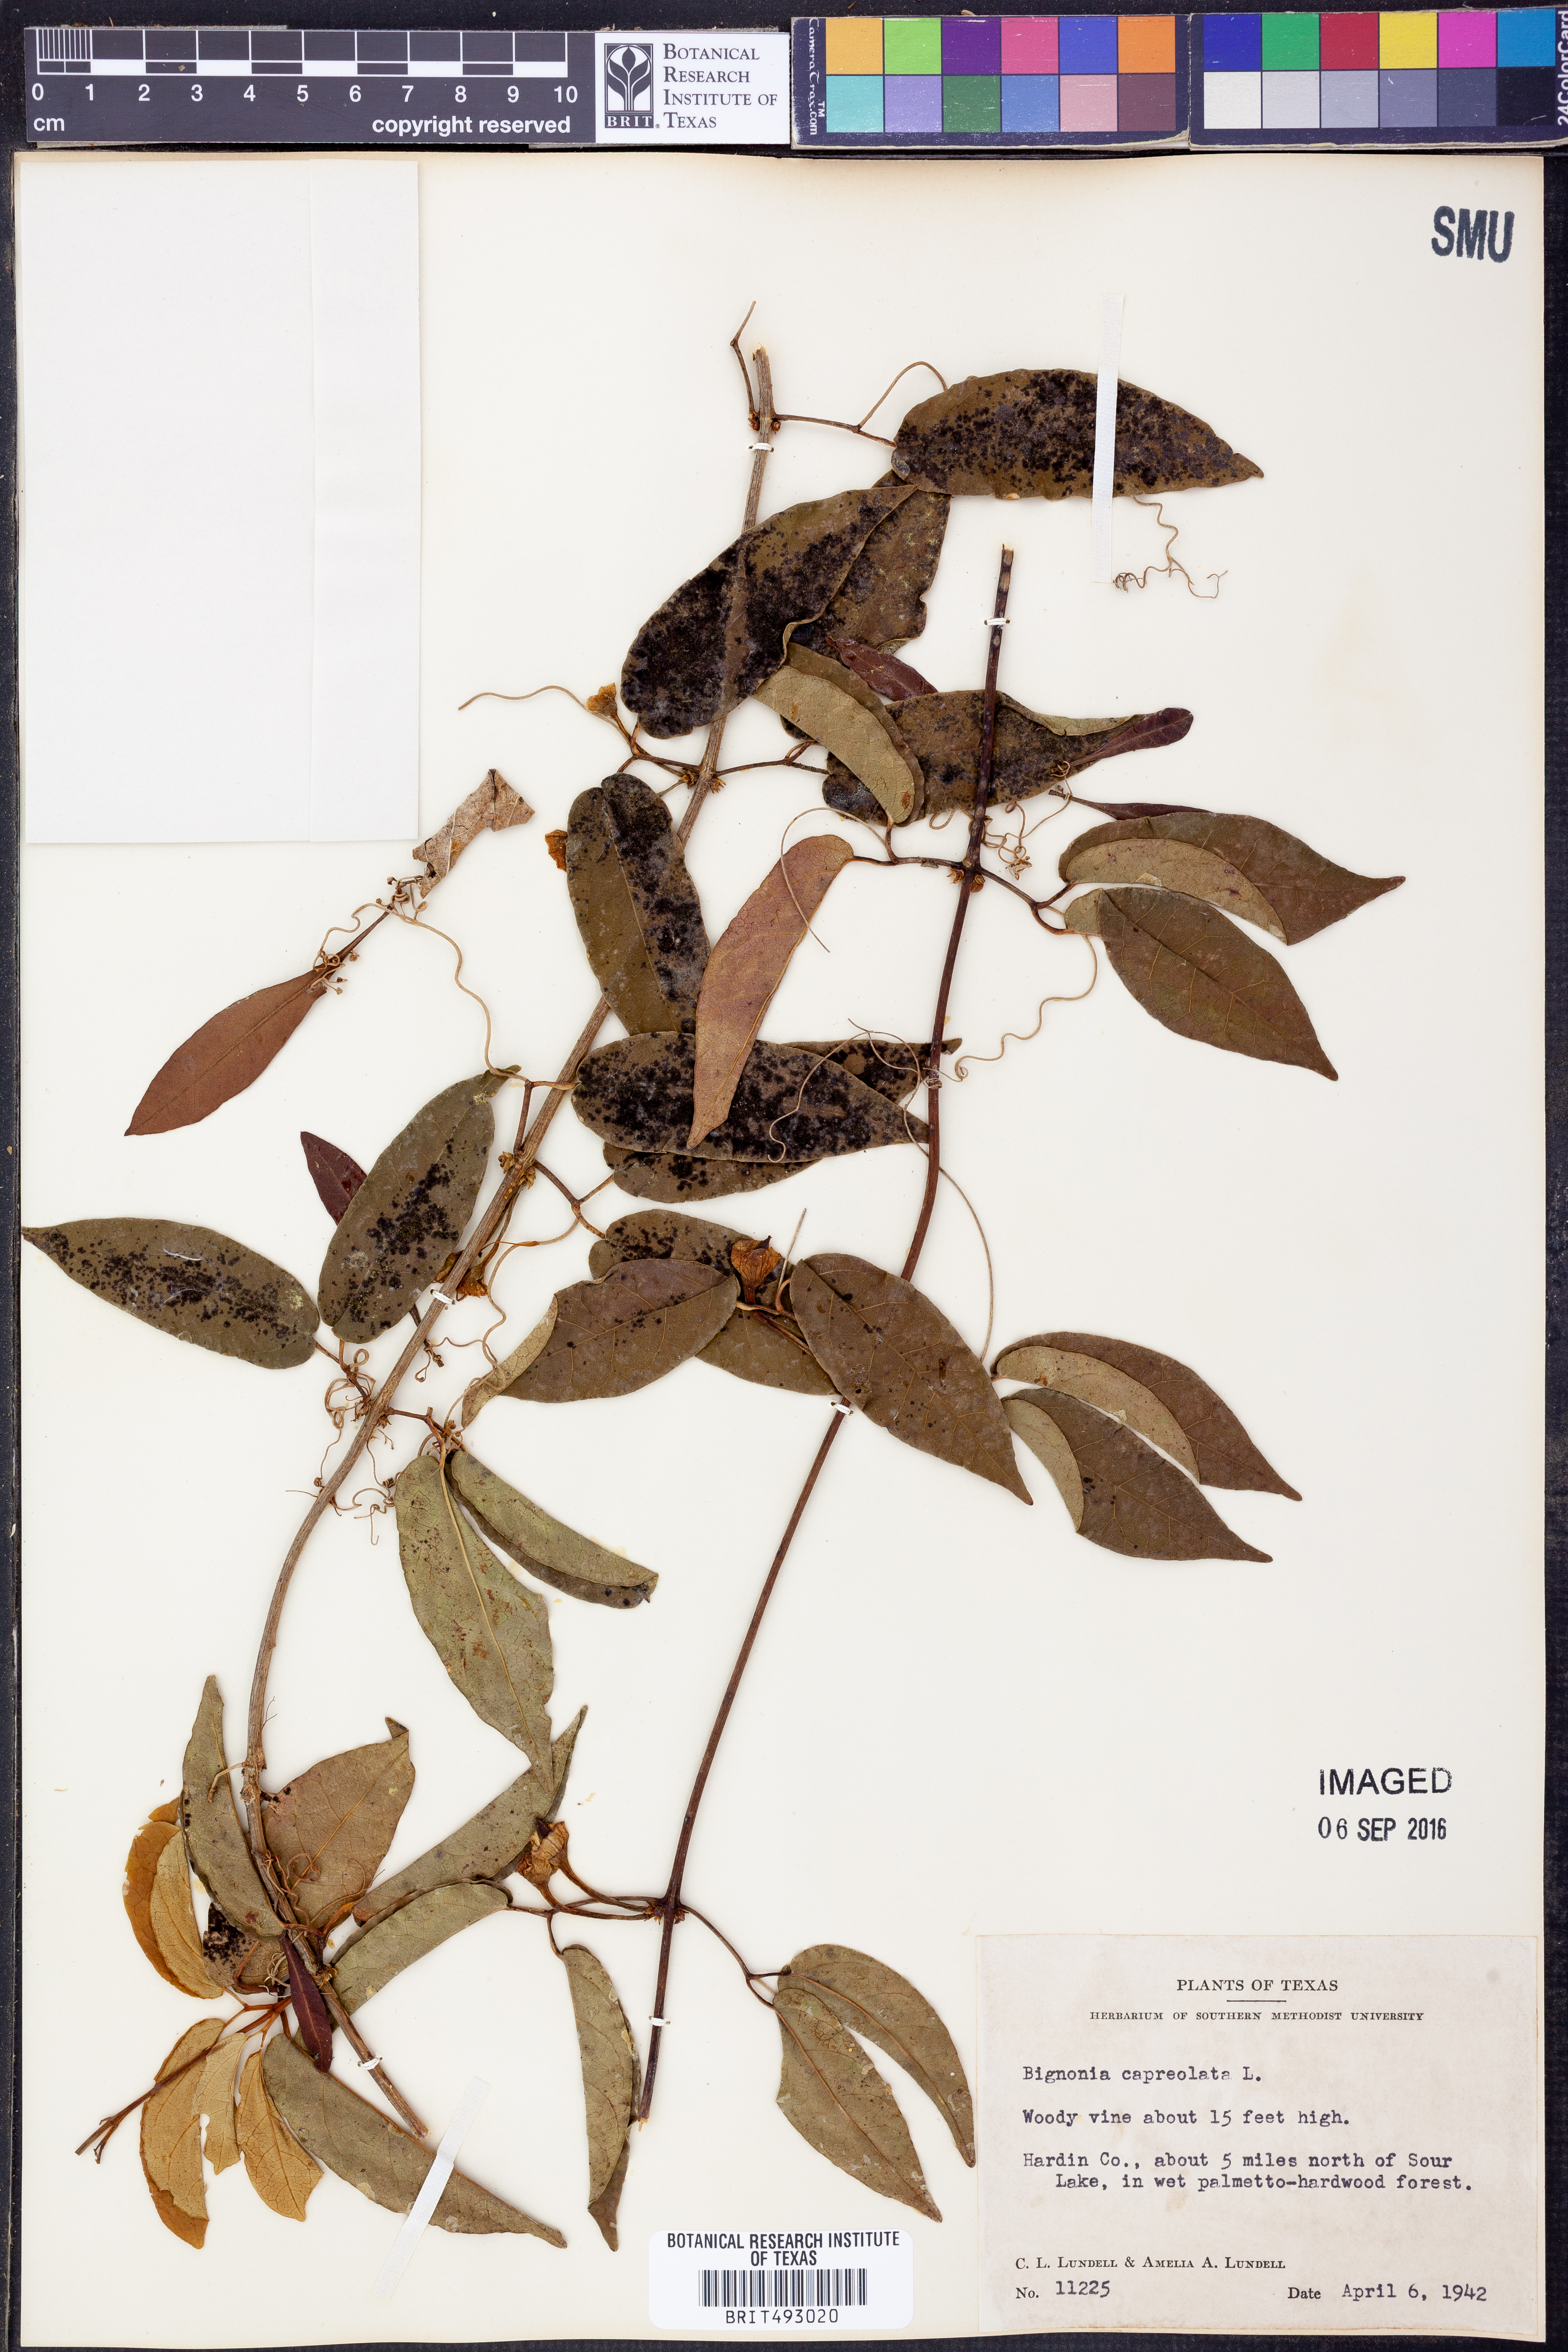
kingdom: Plantae
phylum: Tracheophyta
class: Magnoliopsida
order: Lamiales
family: Bignoniaceae
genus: Bignonia
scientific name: Bignonia capreolata
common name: Crossvine
